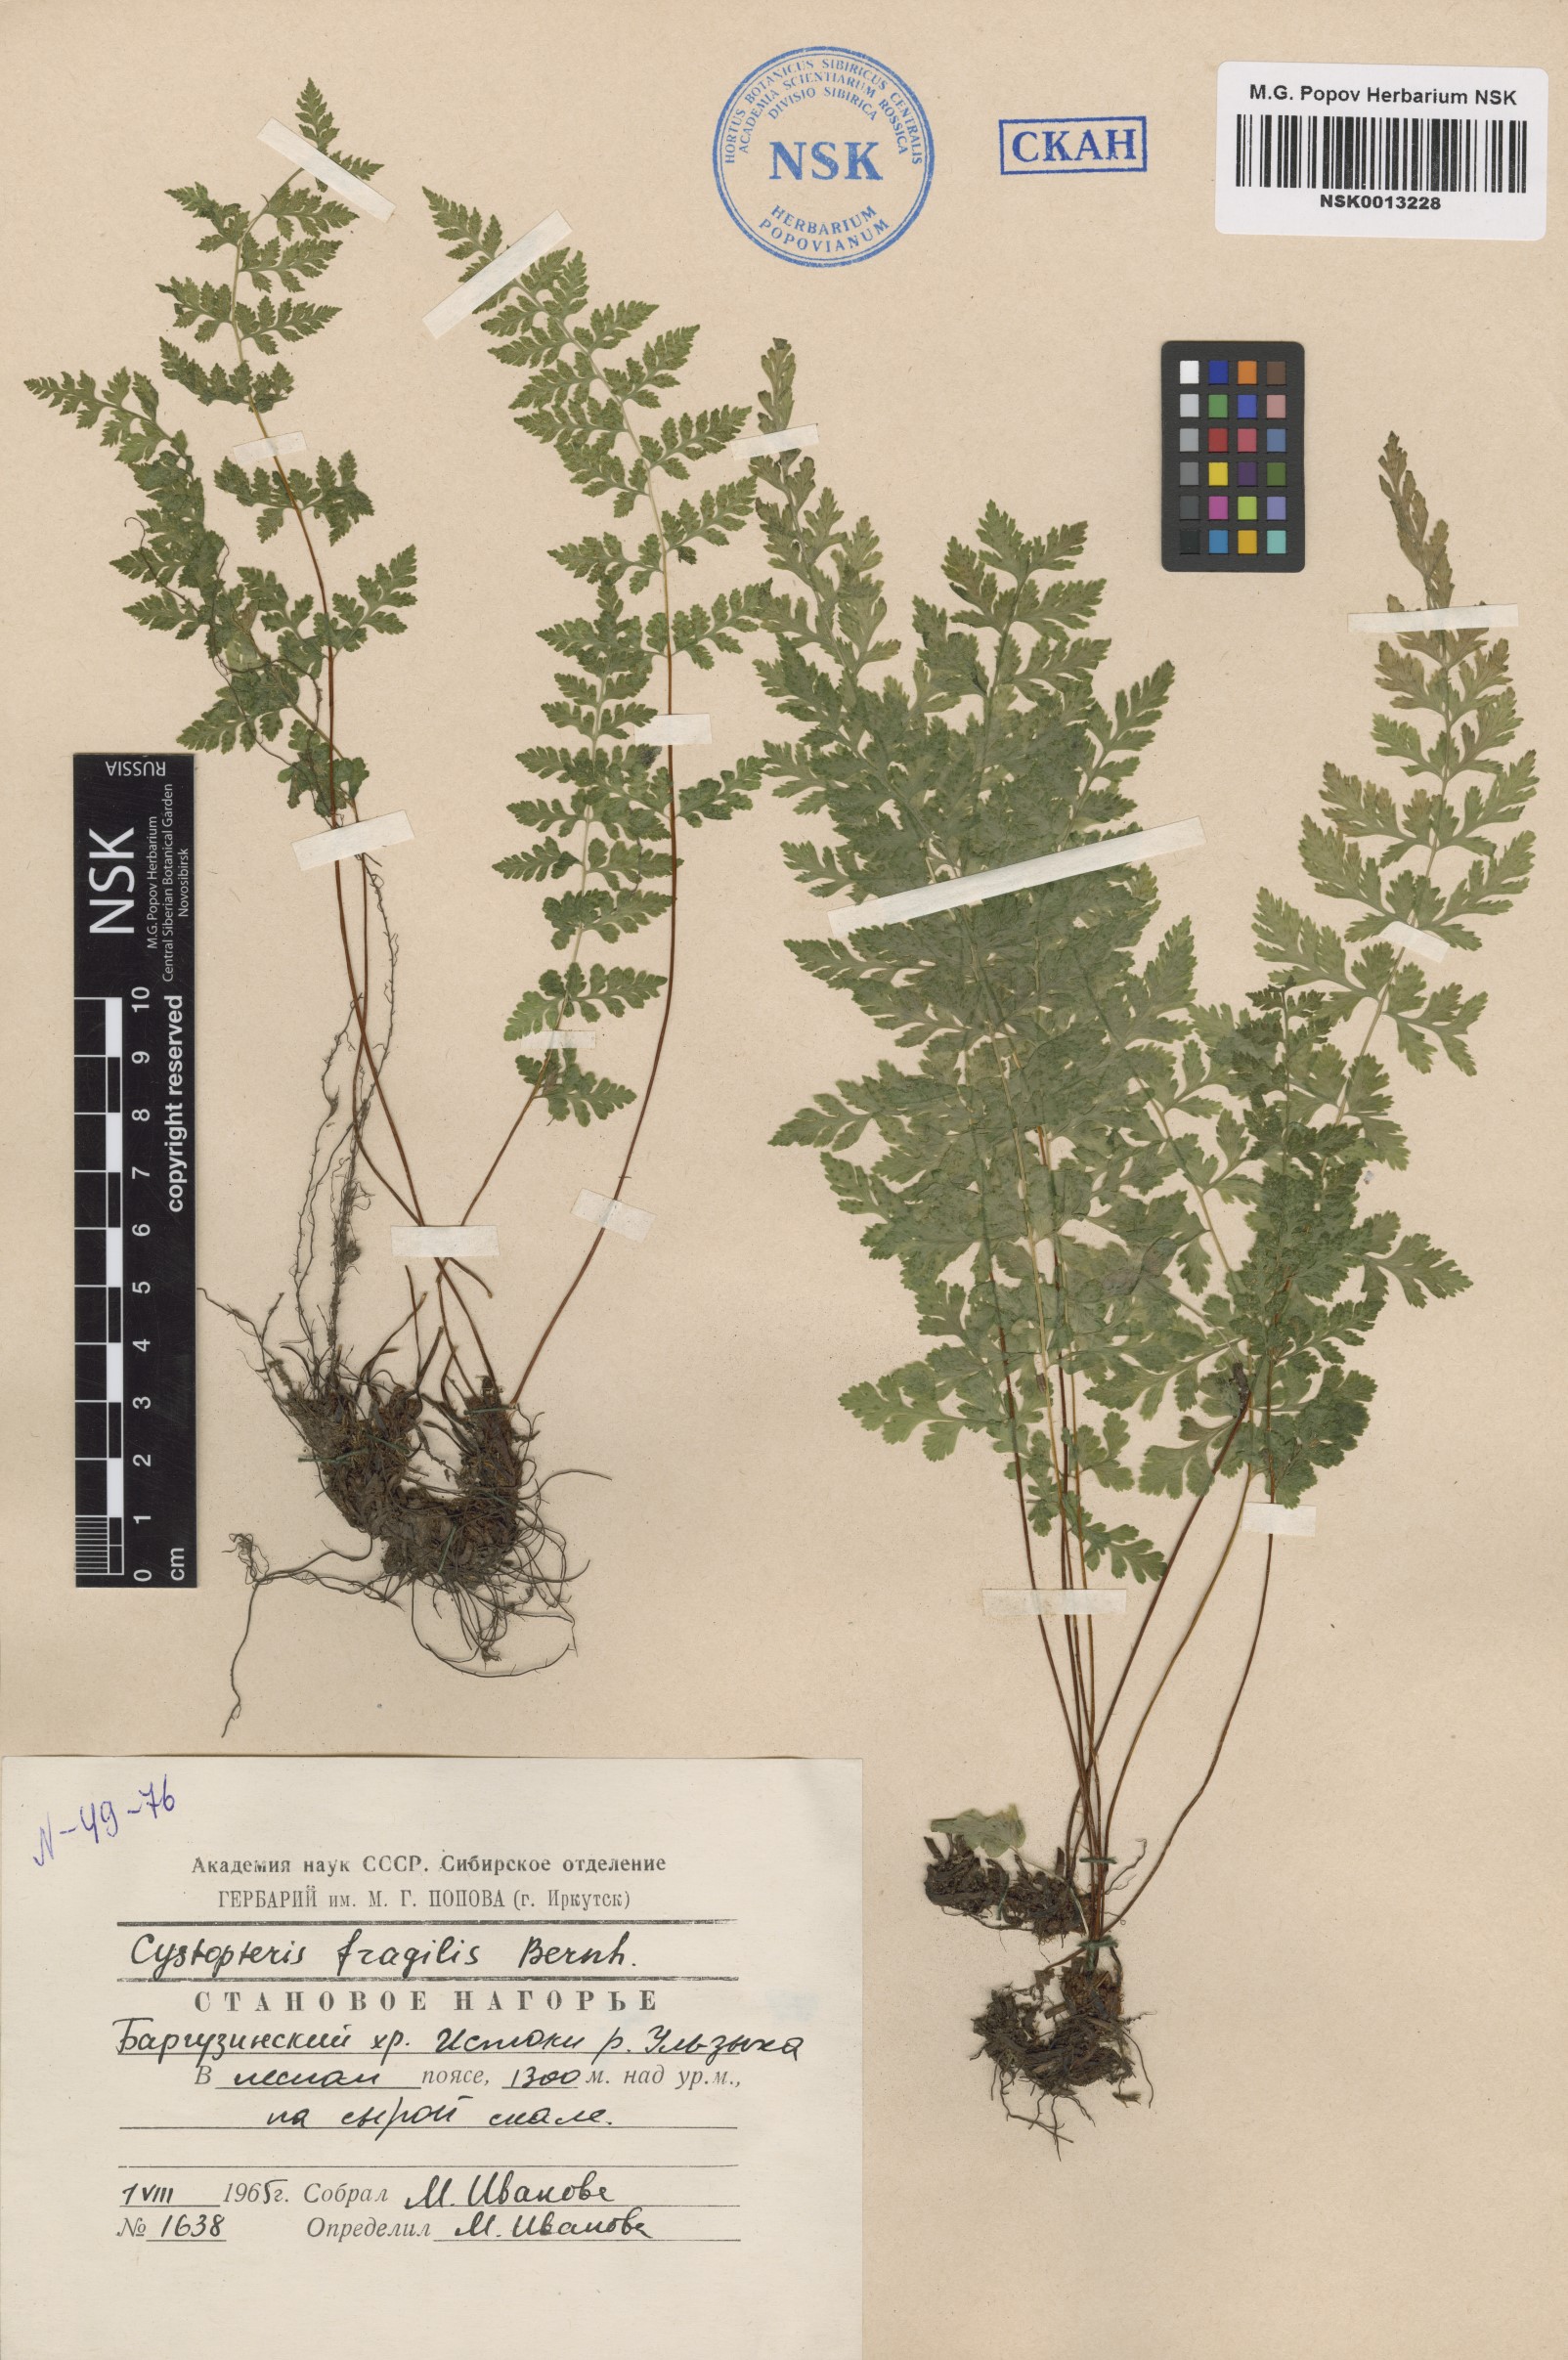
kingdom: Plantae
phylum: Tracheophyta
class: Polypodiopsida
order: Polypodiales
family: Cystopteridaceae
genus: Cystopteris
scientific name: Cystopteris fragilis
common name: Brittle bladder fern
